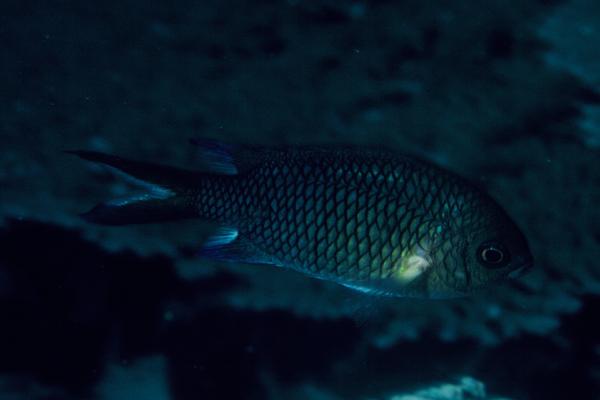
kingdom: Animalia
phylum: Chordata
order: Perciformes
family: Pomacentridae
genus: Chromis
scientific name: Chromis xanthochira
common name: Yellow-axil chromis
